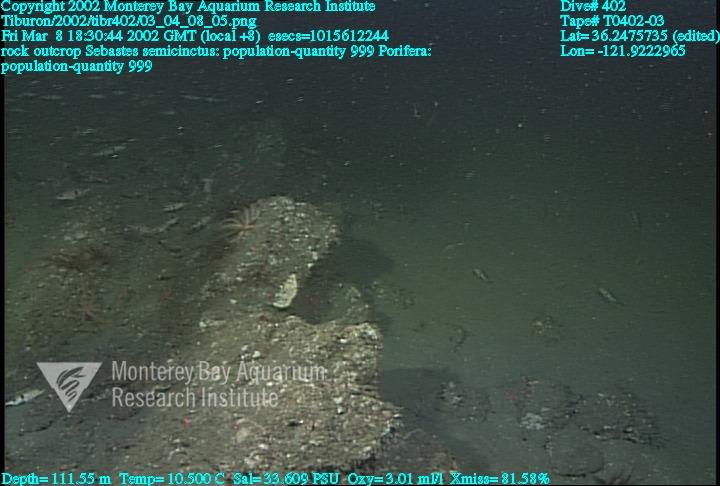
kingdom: Animalia
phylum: Porifera
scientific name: Porifera
